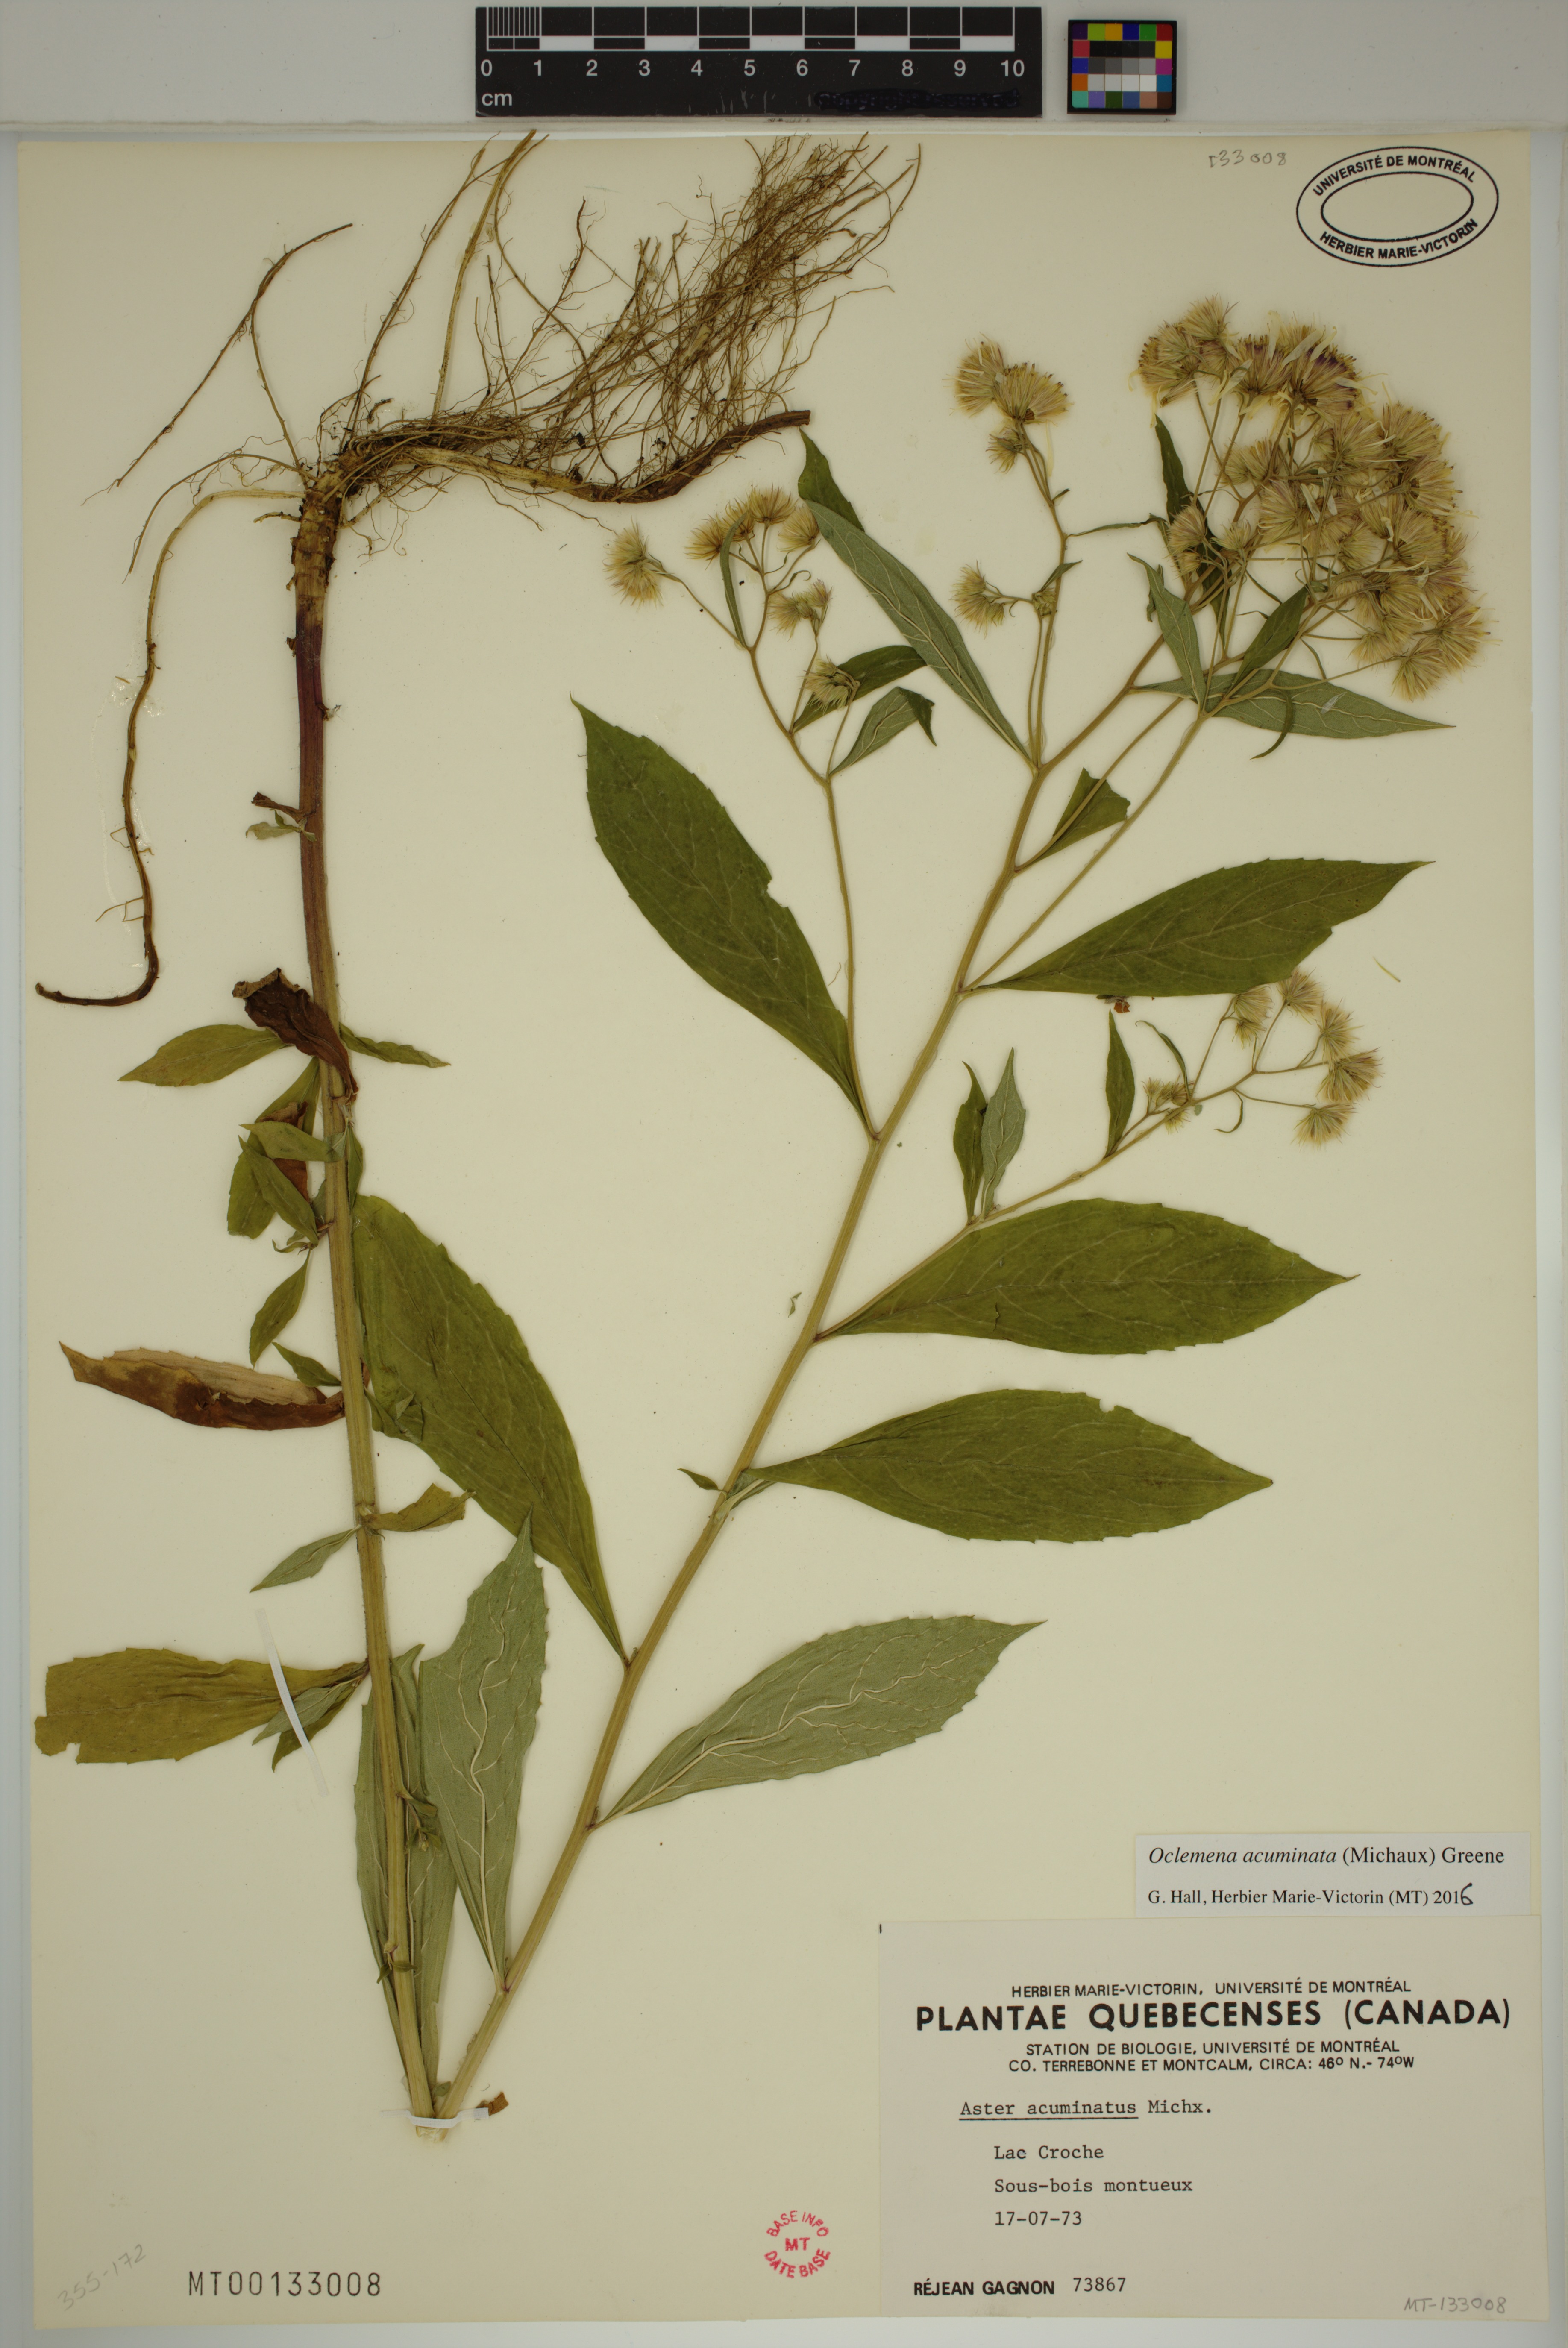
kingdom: Plantae
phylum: Tracheophyta
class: Magnoliopsida
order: Asterales
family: Asteraceae
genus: Oclemena
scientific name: Oclemena acuminata
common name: Mountain aster
